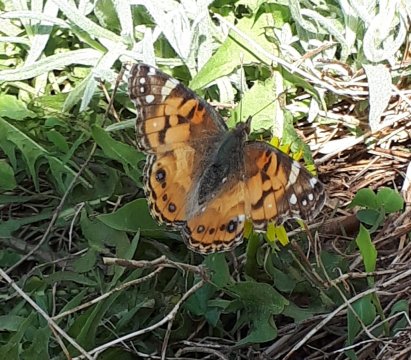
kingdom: Animalia
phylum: Arthropoda
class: Insecta
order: Lepidoptera
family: Nymphalidae
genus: Vanessa
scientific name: Vanessa virginiensis
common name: American Lady
